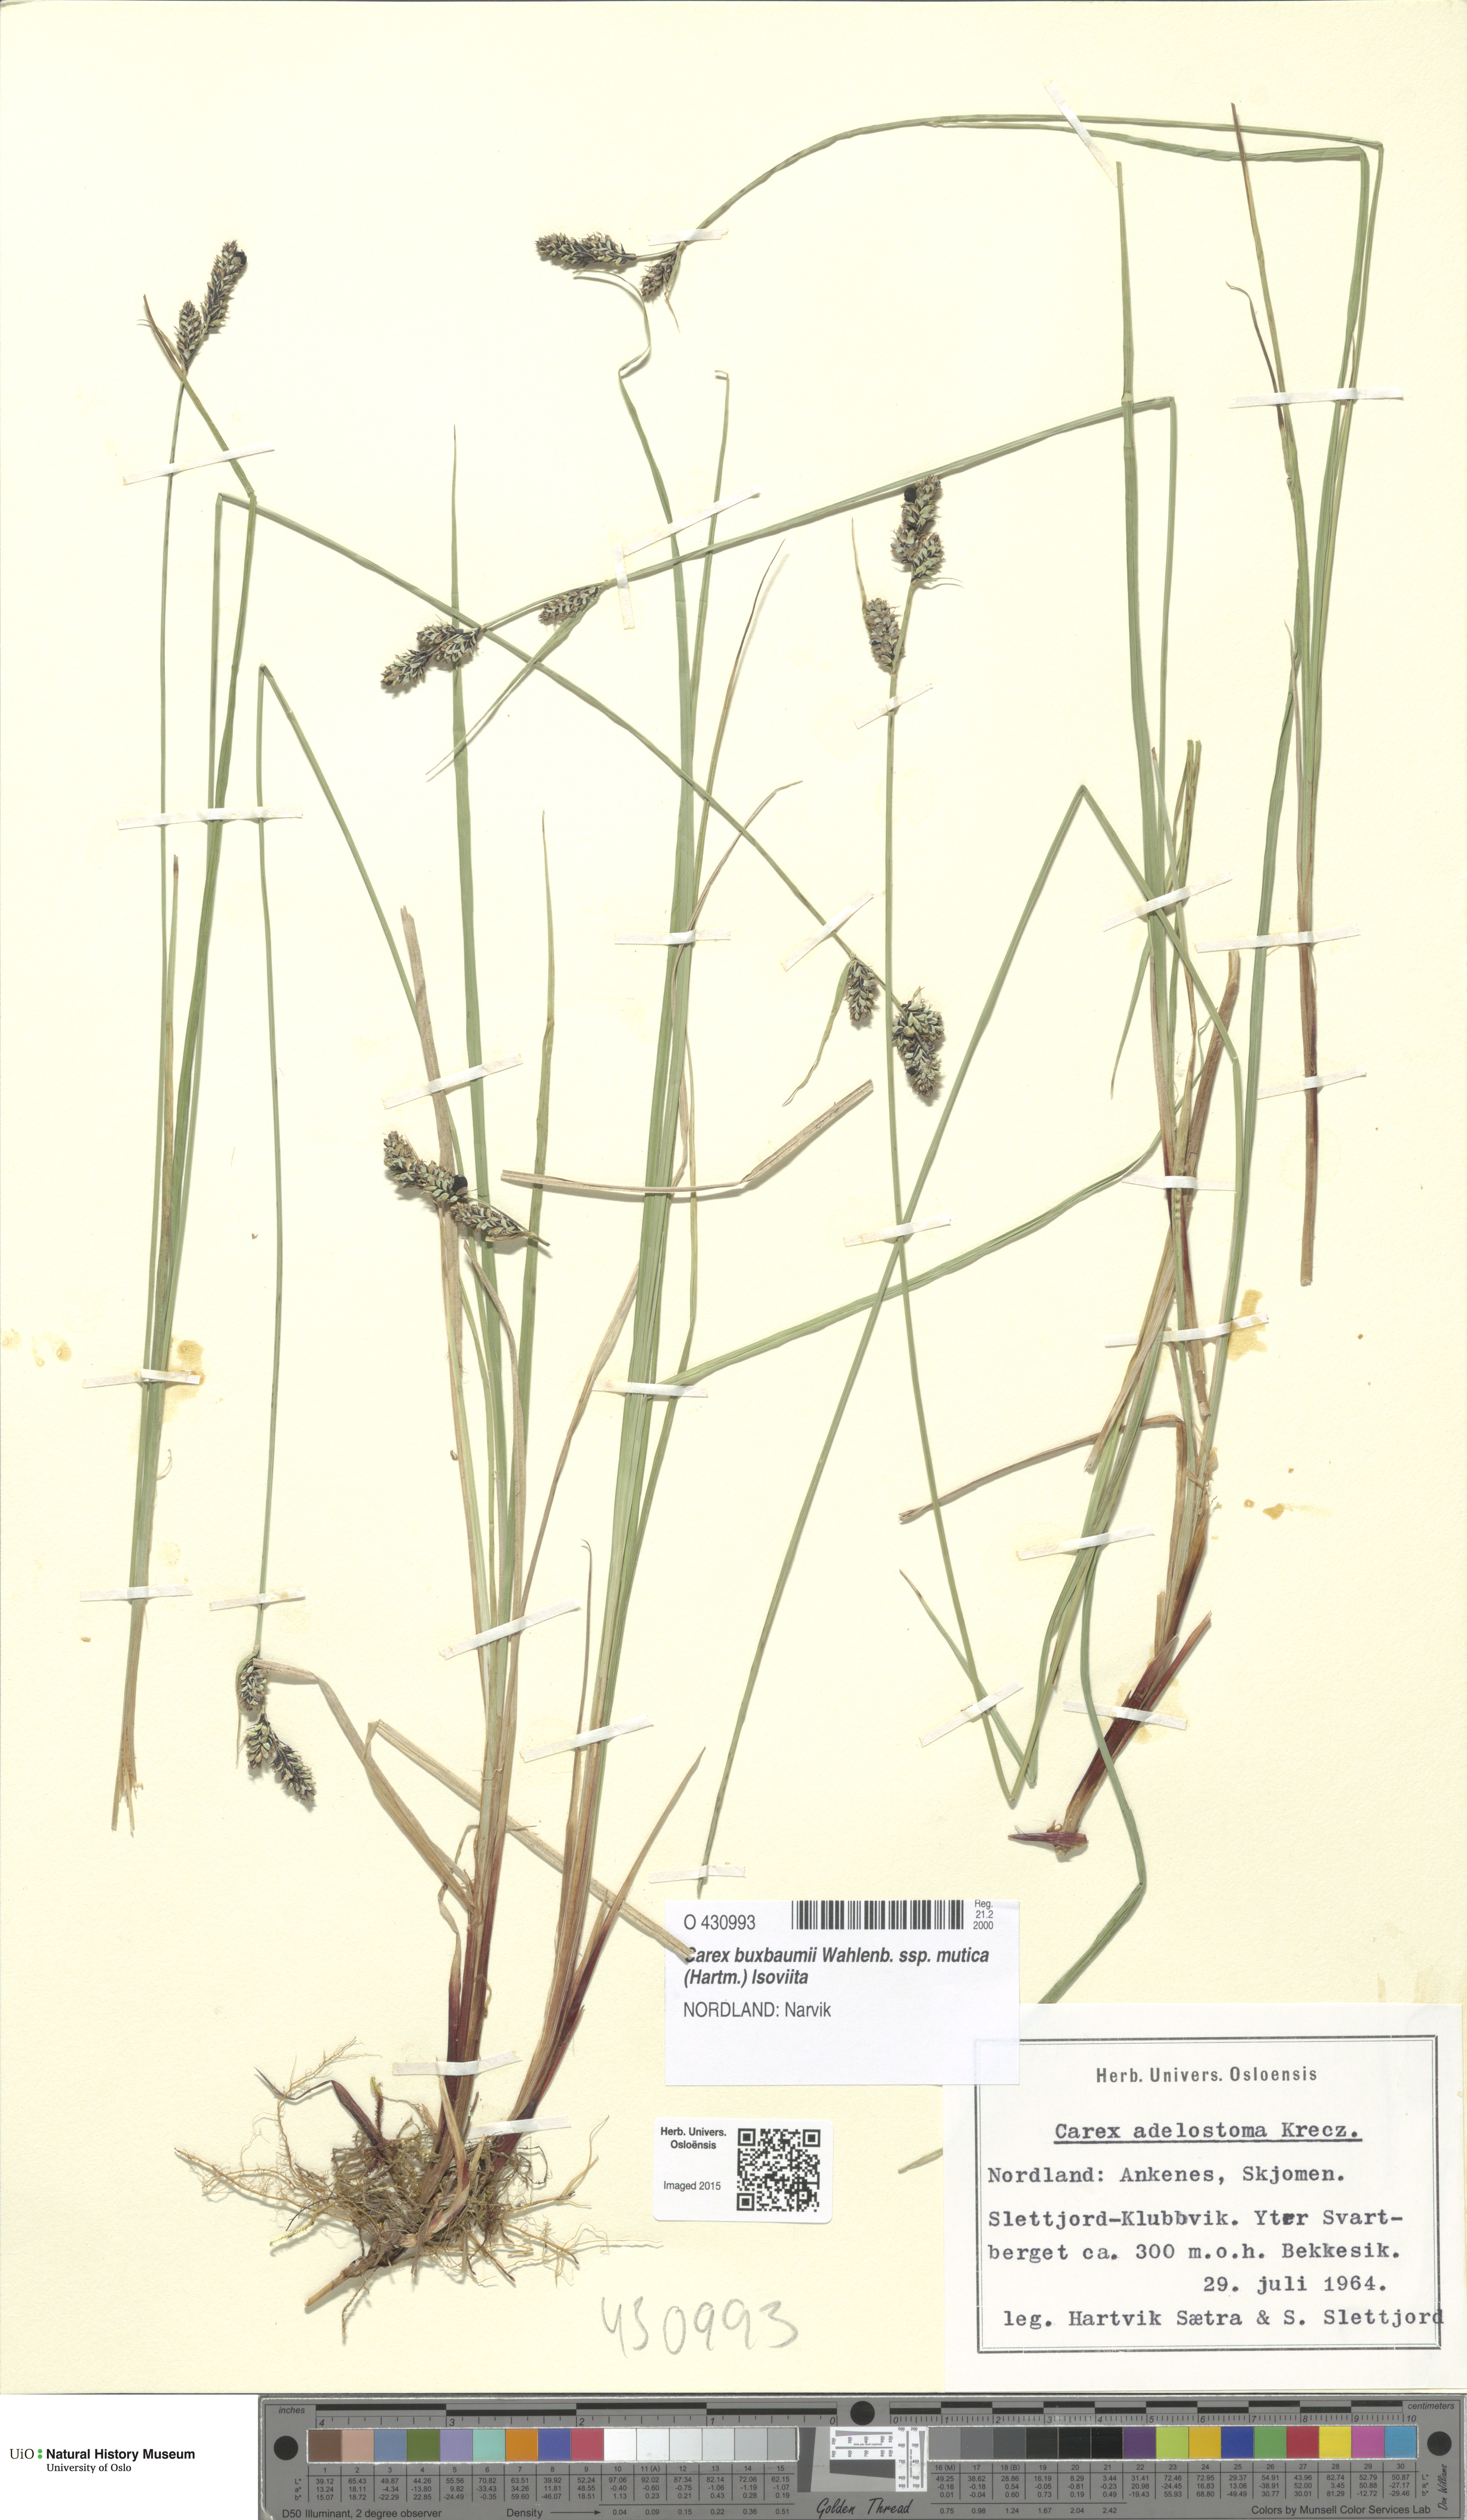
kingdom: Plantae
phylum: Tracheophyta
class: Liliopsida
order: Poales
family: Cyperaceae
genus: Carex
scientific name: Carex adelostoma
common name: Circumpolar sedge
